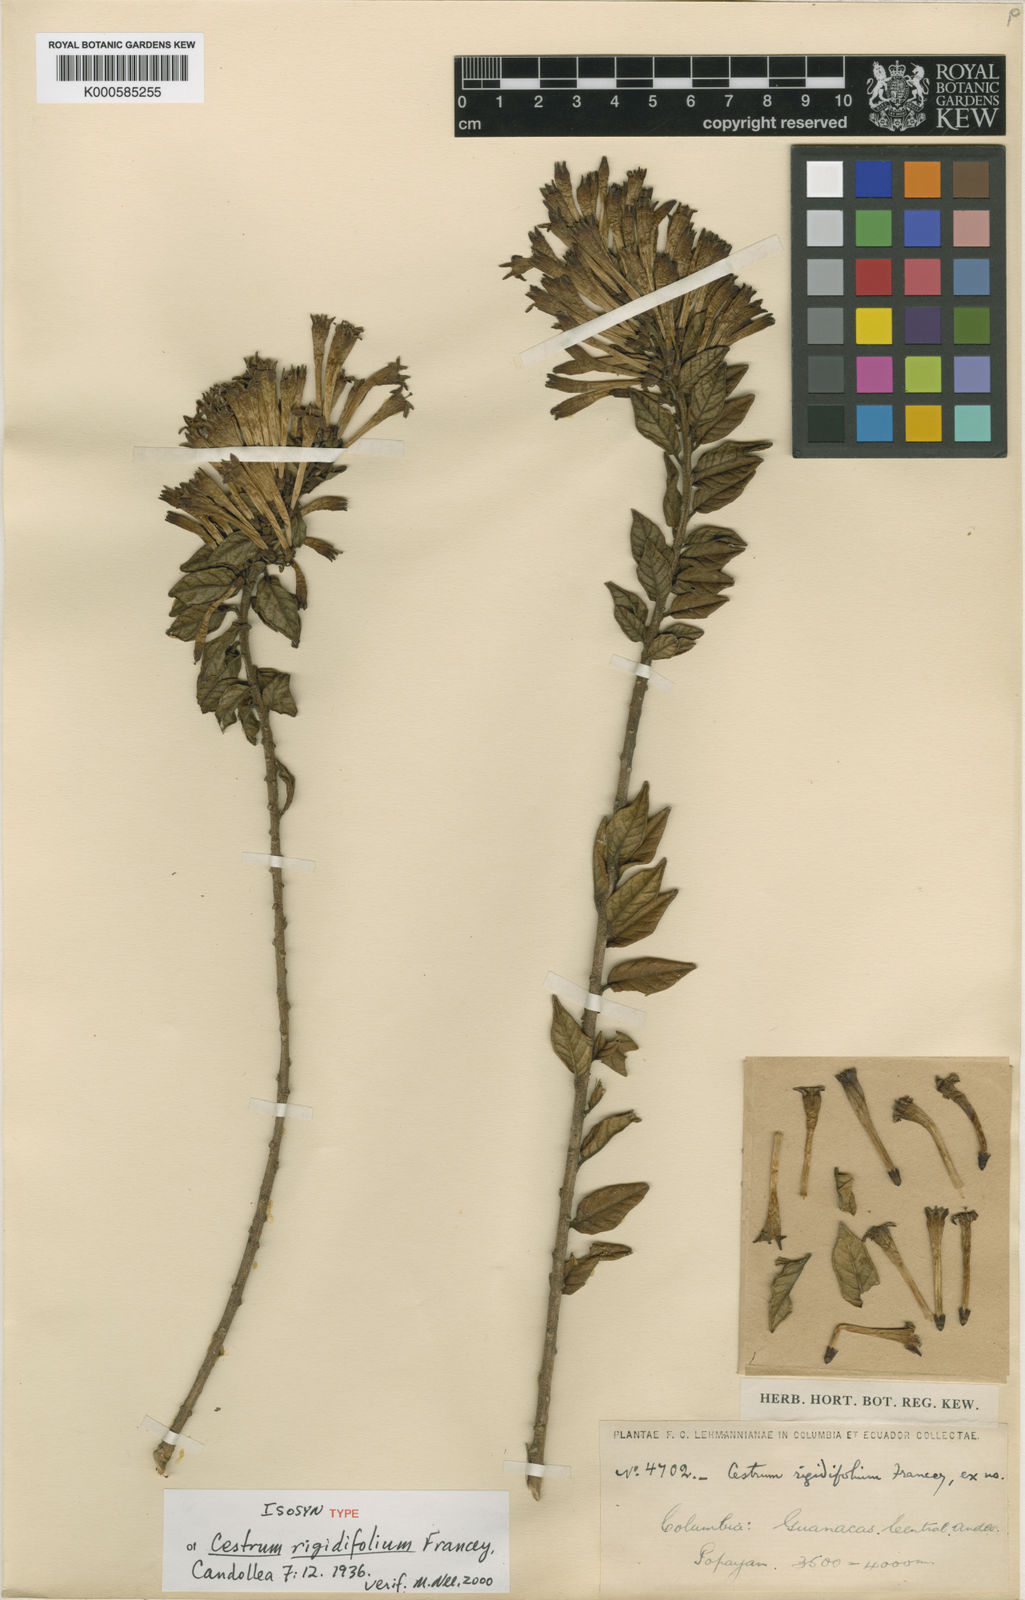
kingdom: Plantae
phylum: Tracheophyta
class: Magnoliopsida
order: Solanales
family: Solanaceae
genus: Cestrum
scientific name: Cestrum rigidifolium
